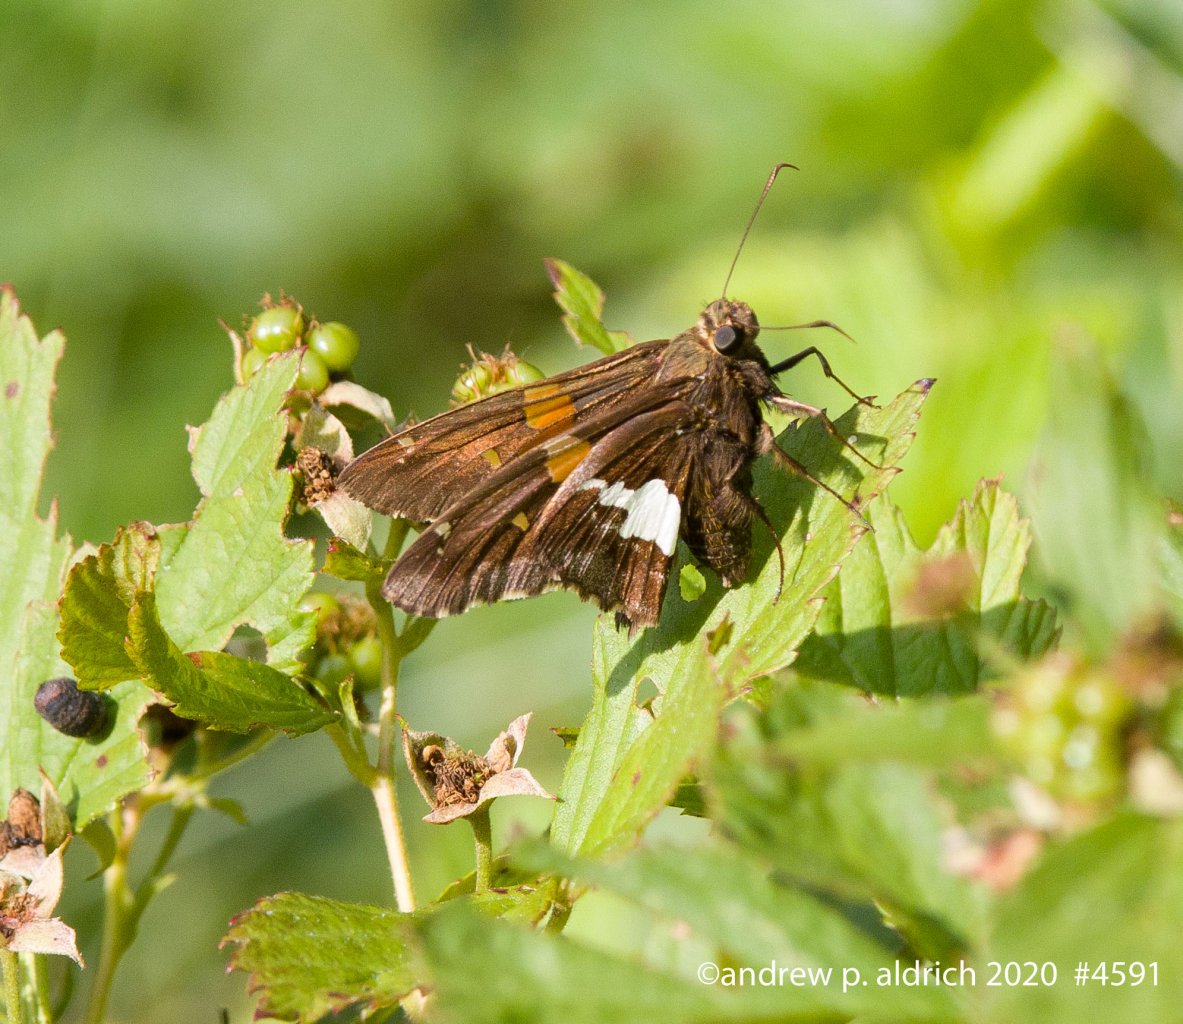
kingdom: Animalia
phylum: Arthropoda
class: Insecta
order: Lepidoptera
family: Hesperiidae
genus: Epargyreus
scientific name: Epargyreus clarus
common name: Silver-spotted Skipper
